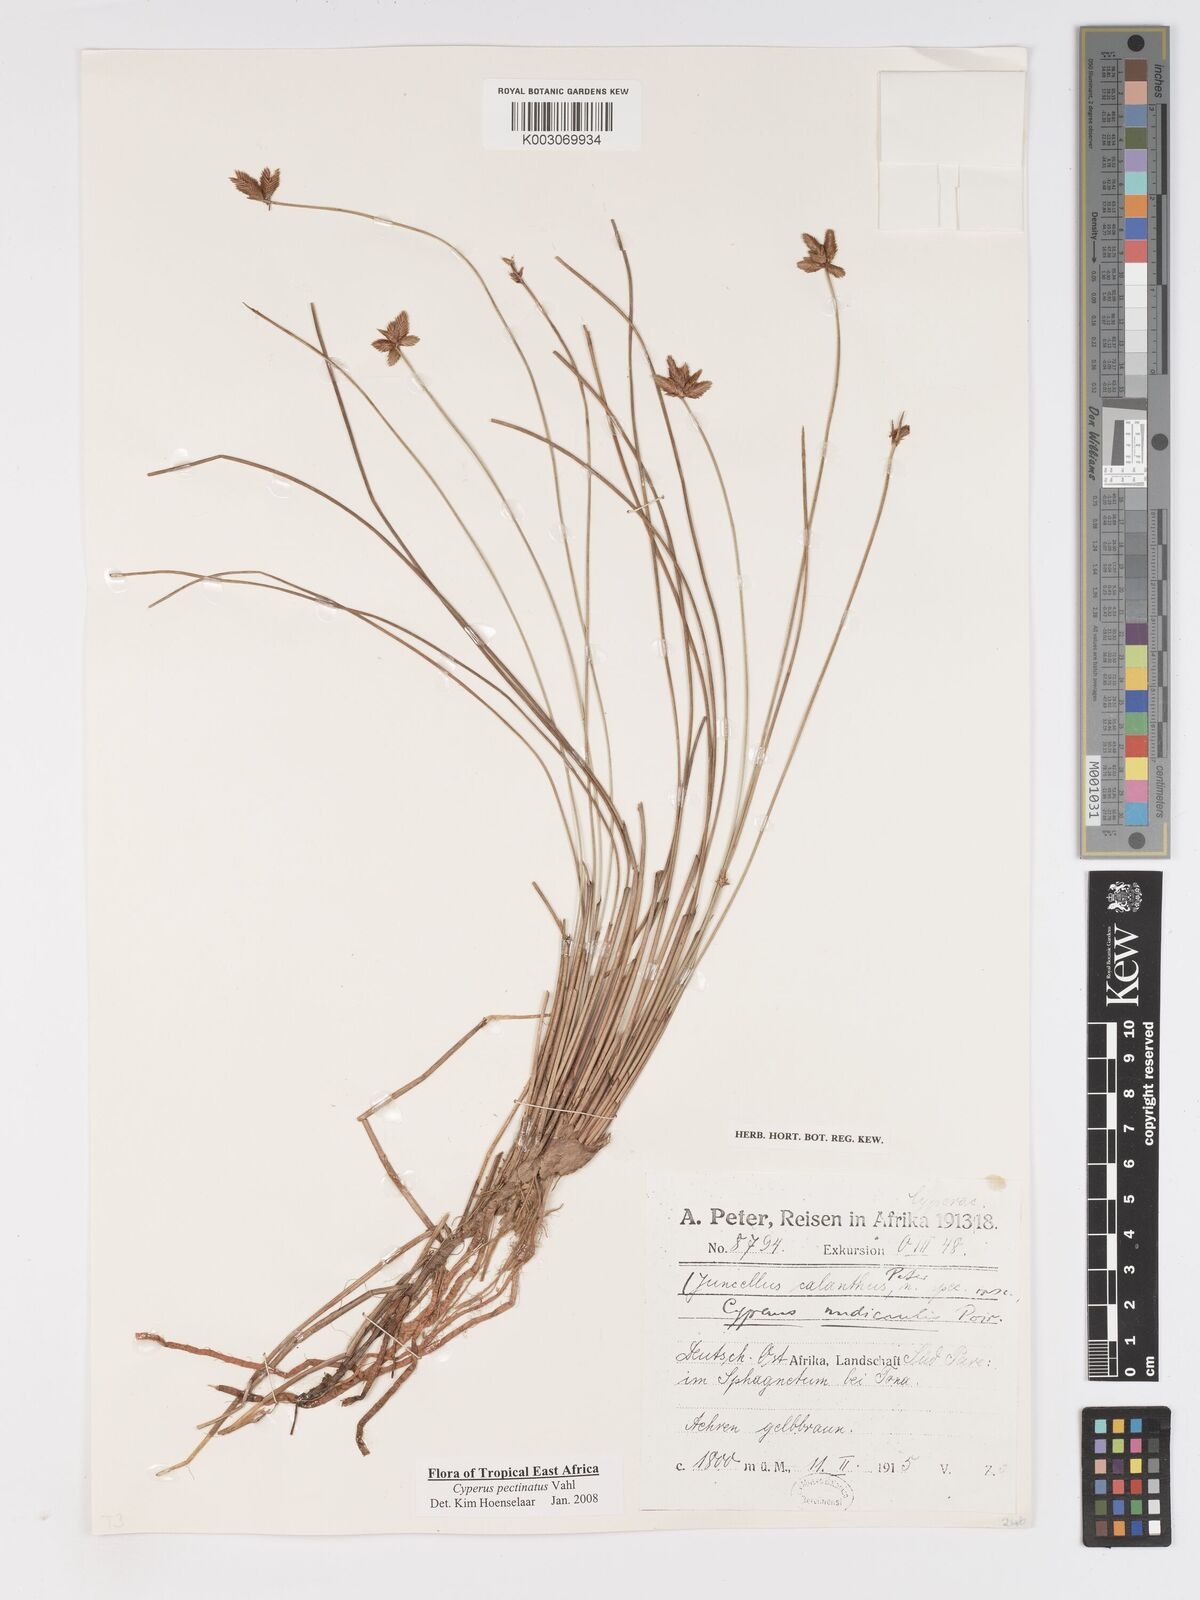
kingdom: Plantae
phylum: Tracheophyta
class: Liliopsida
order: Poales
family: Cyperaceae
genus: Cyperus
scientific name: Cyperus pectinatus
